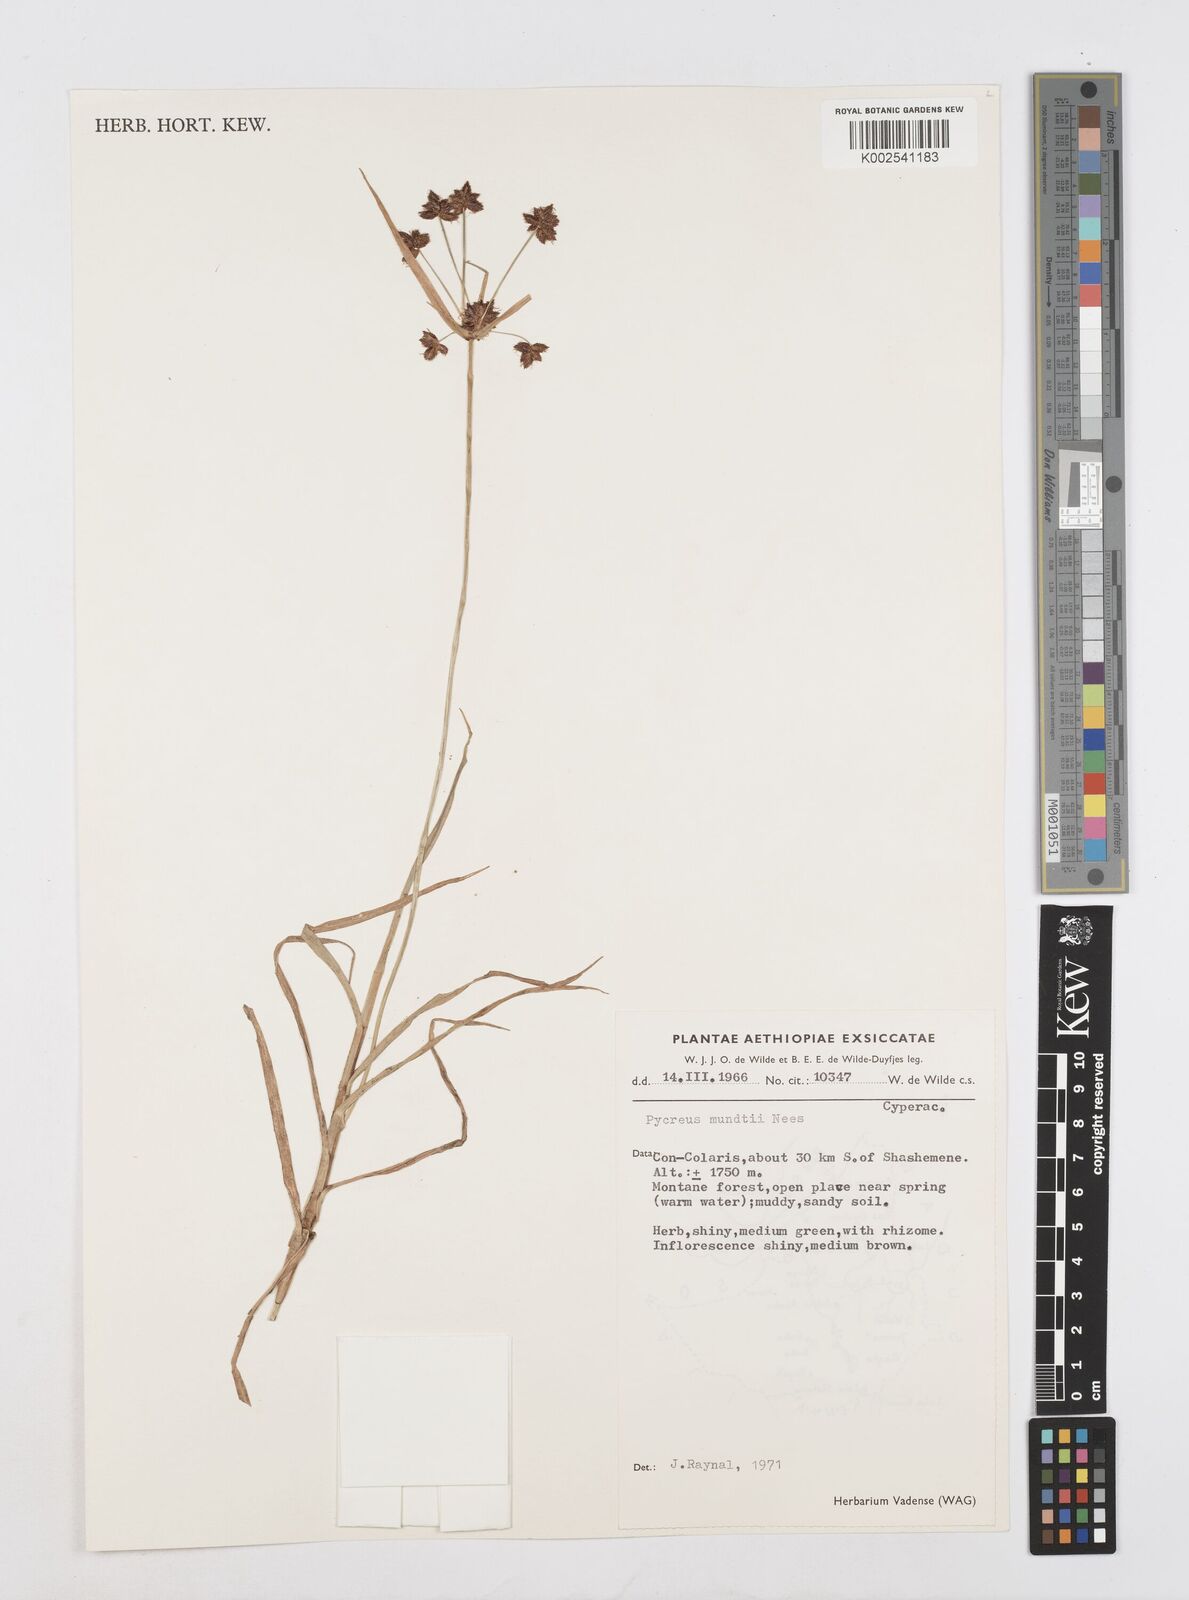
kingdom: Plantae
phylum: Tracheophyta
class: Liliopsida
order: Poales
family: Cyperaceae
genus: Cyperus
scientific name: Cyperus mundii
